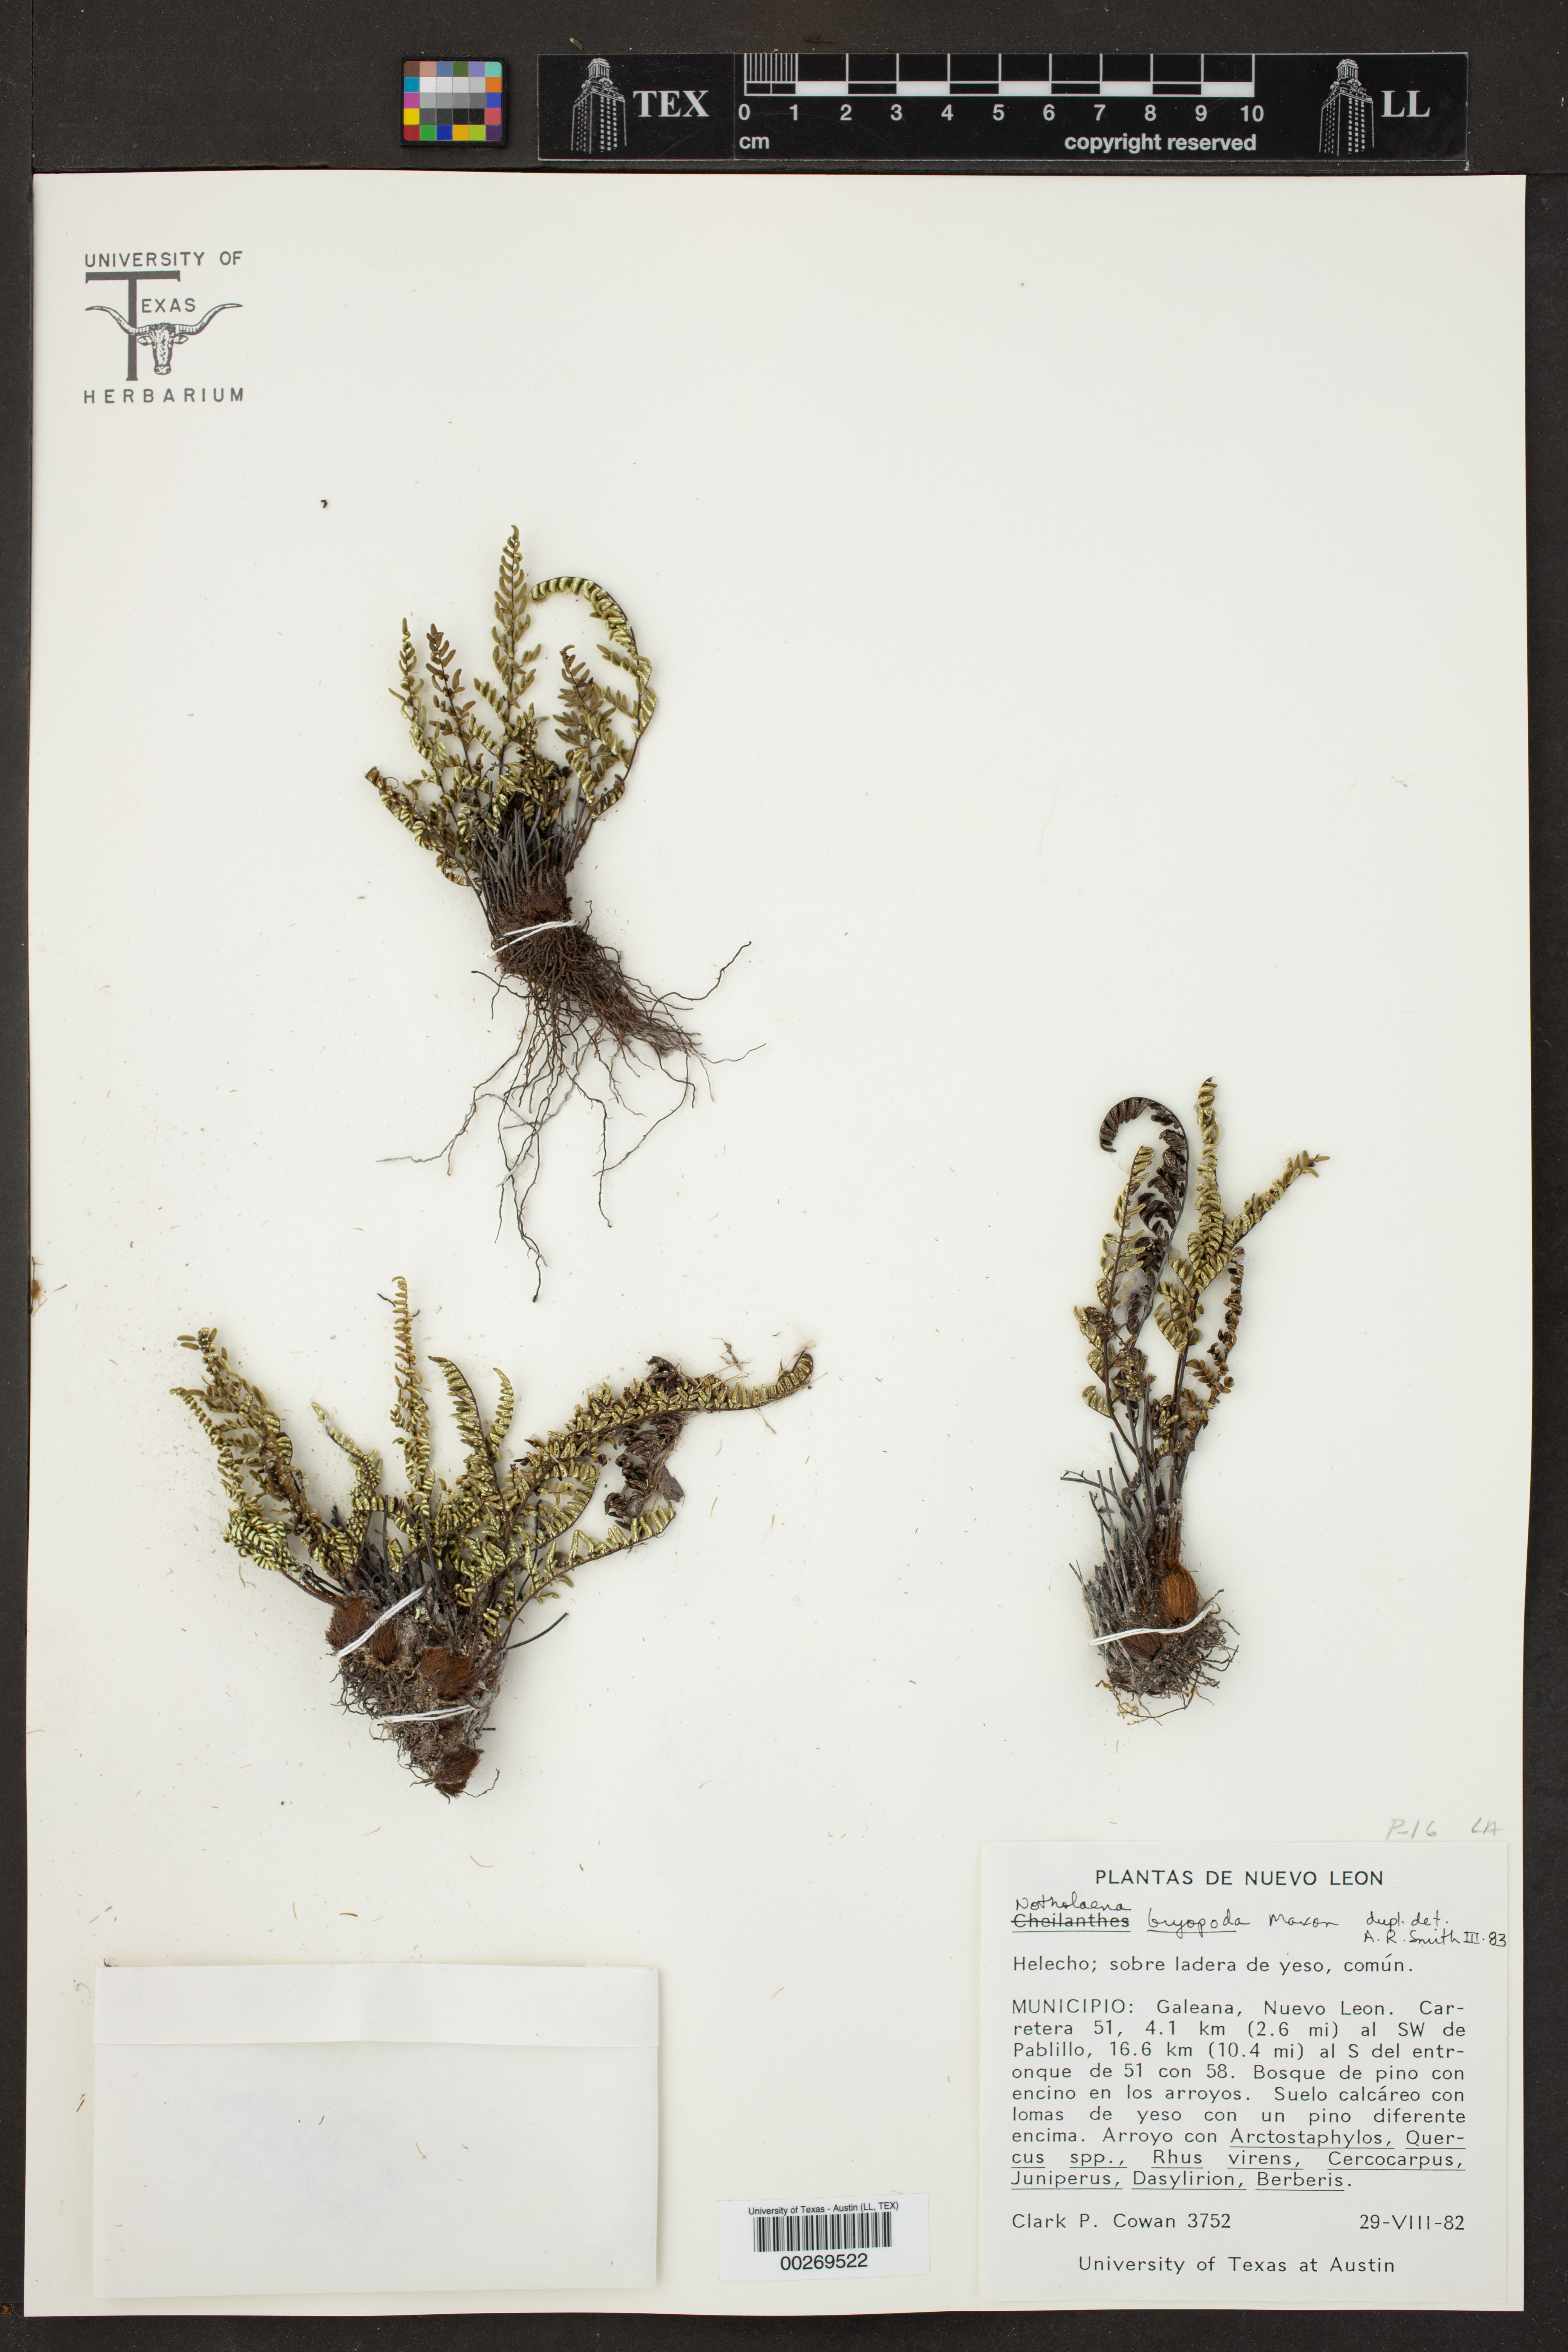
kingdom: Plantae
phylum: Tracheophyta
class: Polypodiopsida
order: Polypodiales
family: Pteridaceae
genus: Notholaena
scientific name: Notholaena bryopoda
